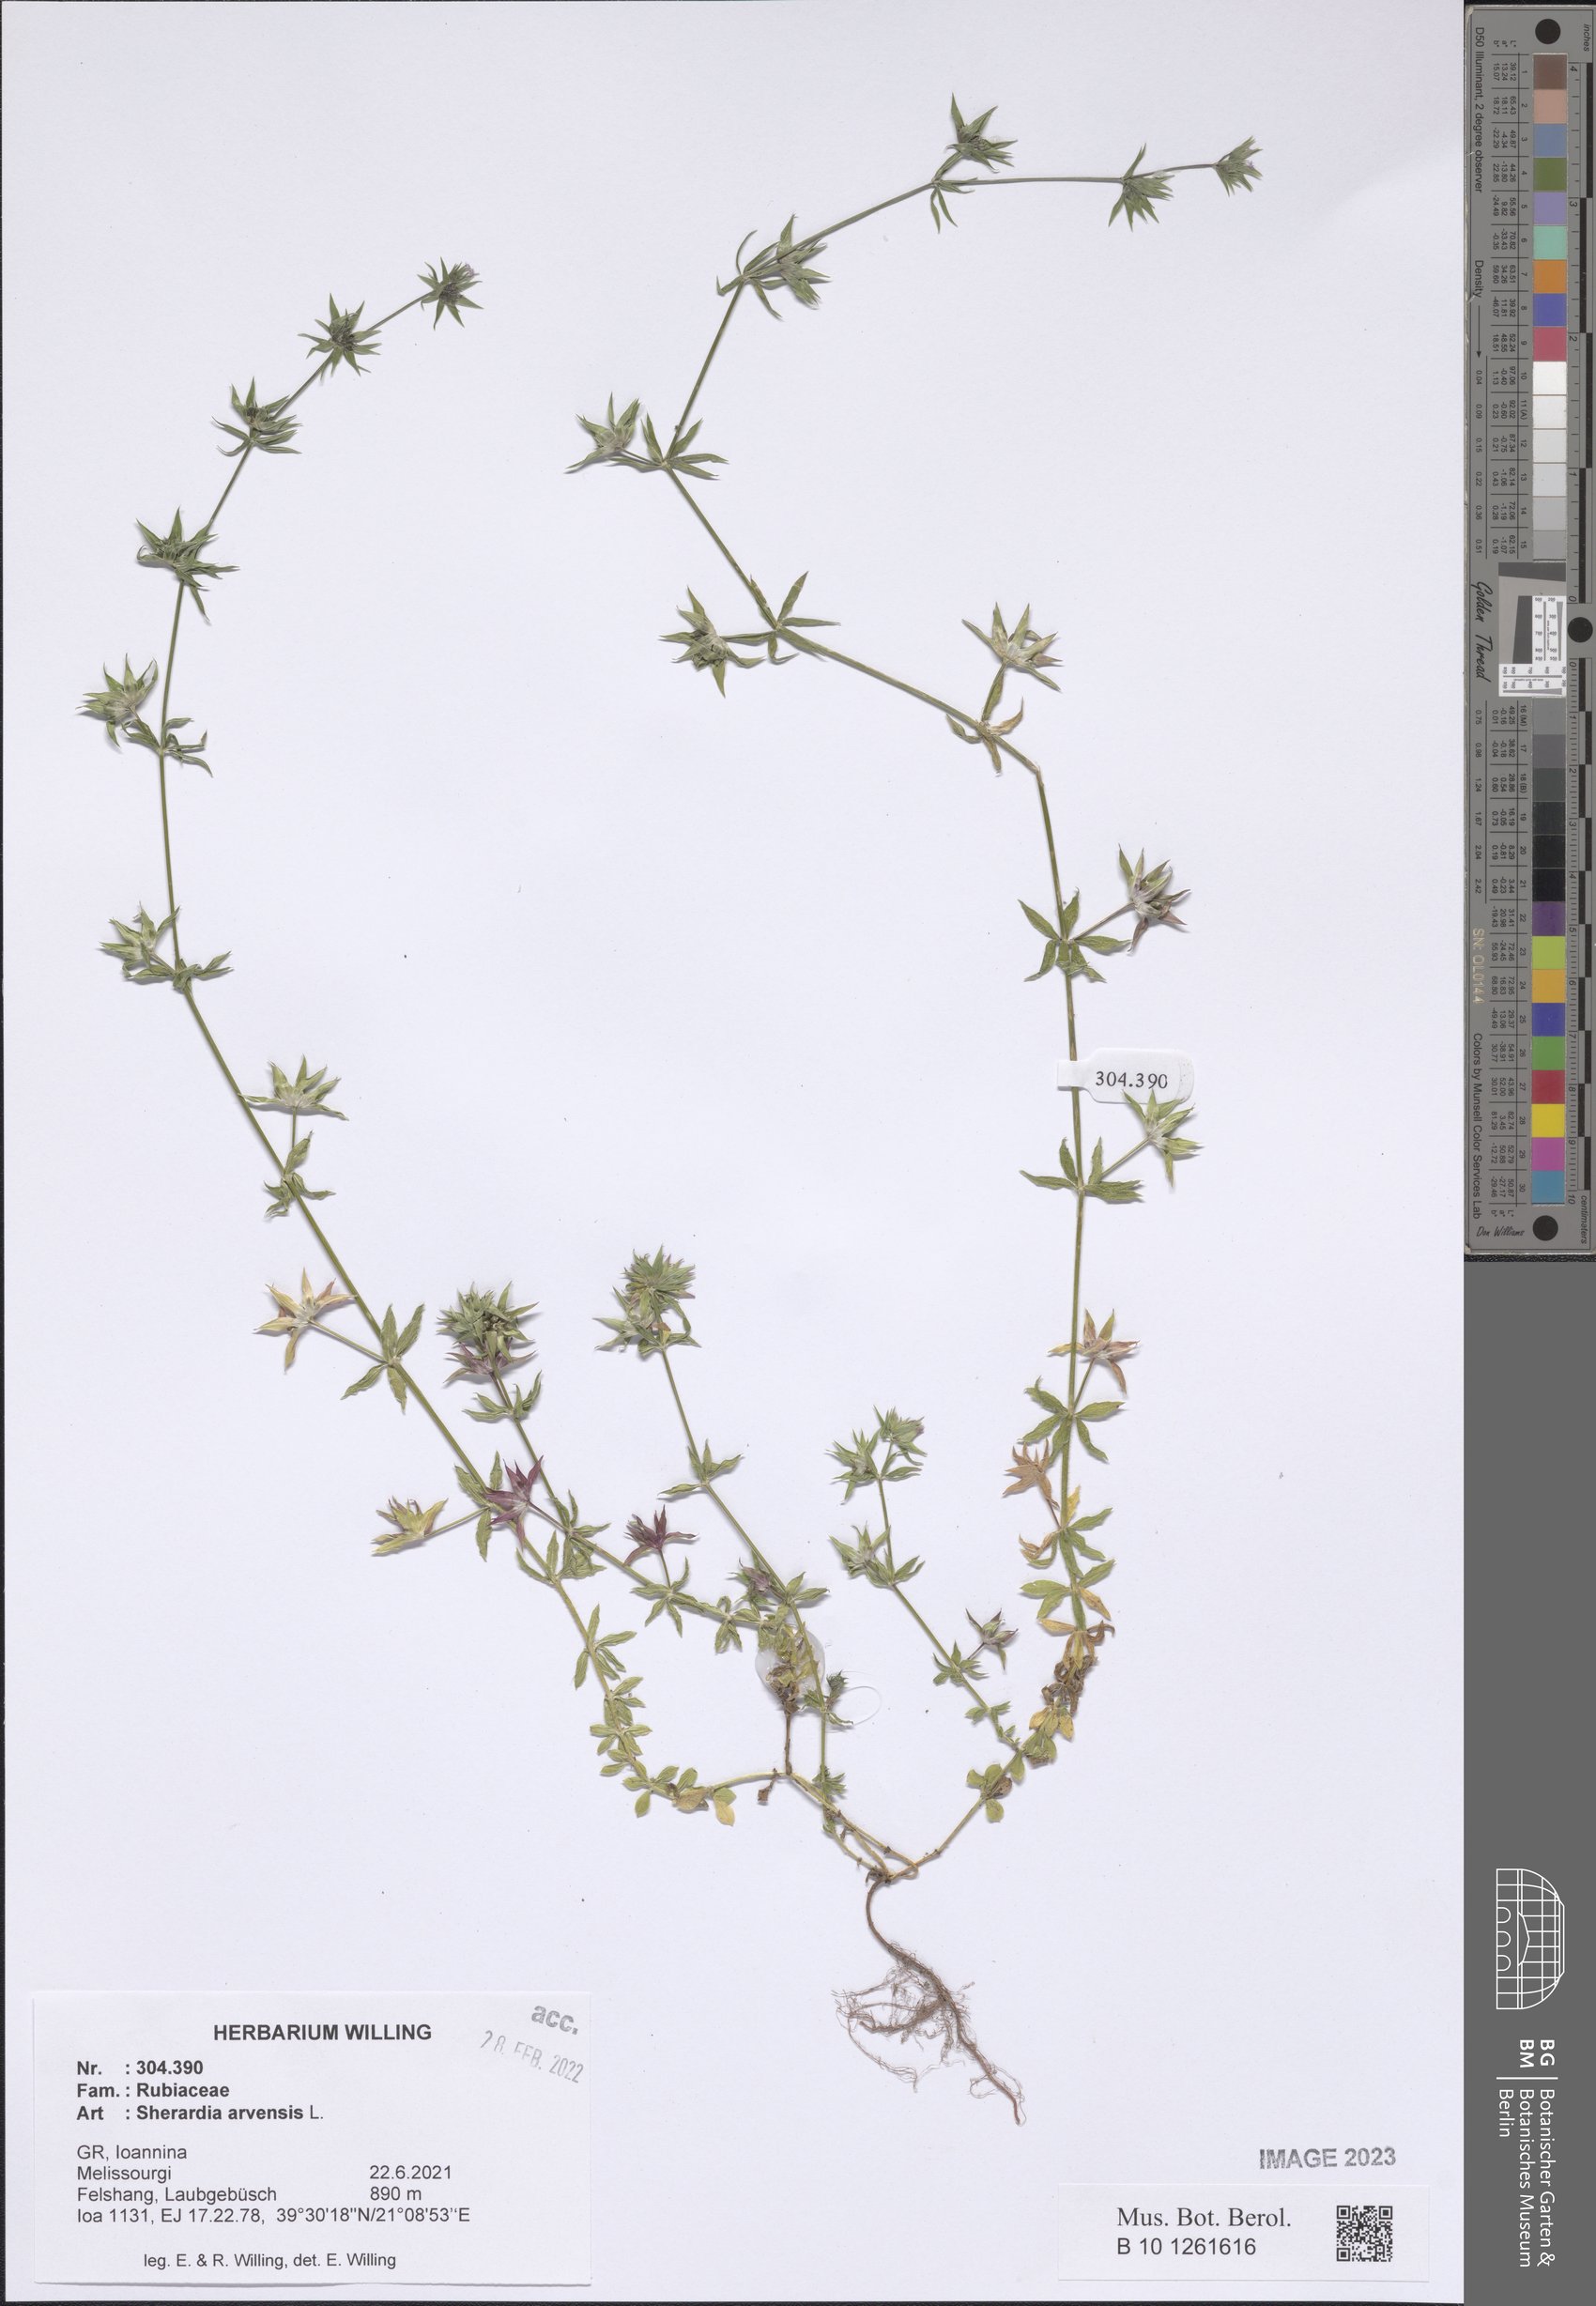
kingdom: Plantae
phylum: Tracheophyta
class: Magnoliopsida
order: Gentianales
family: Rubiaceae
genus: Sherardia
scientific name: Sherardia arvensis
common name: Field madder
